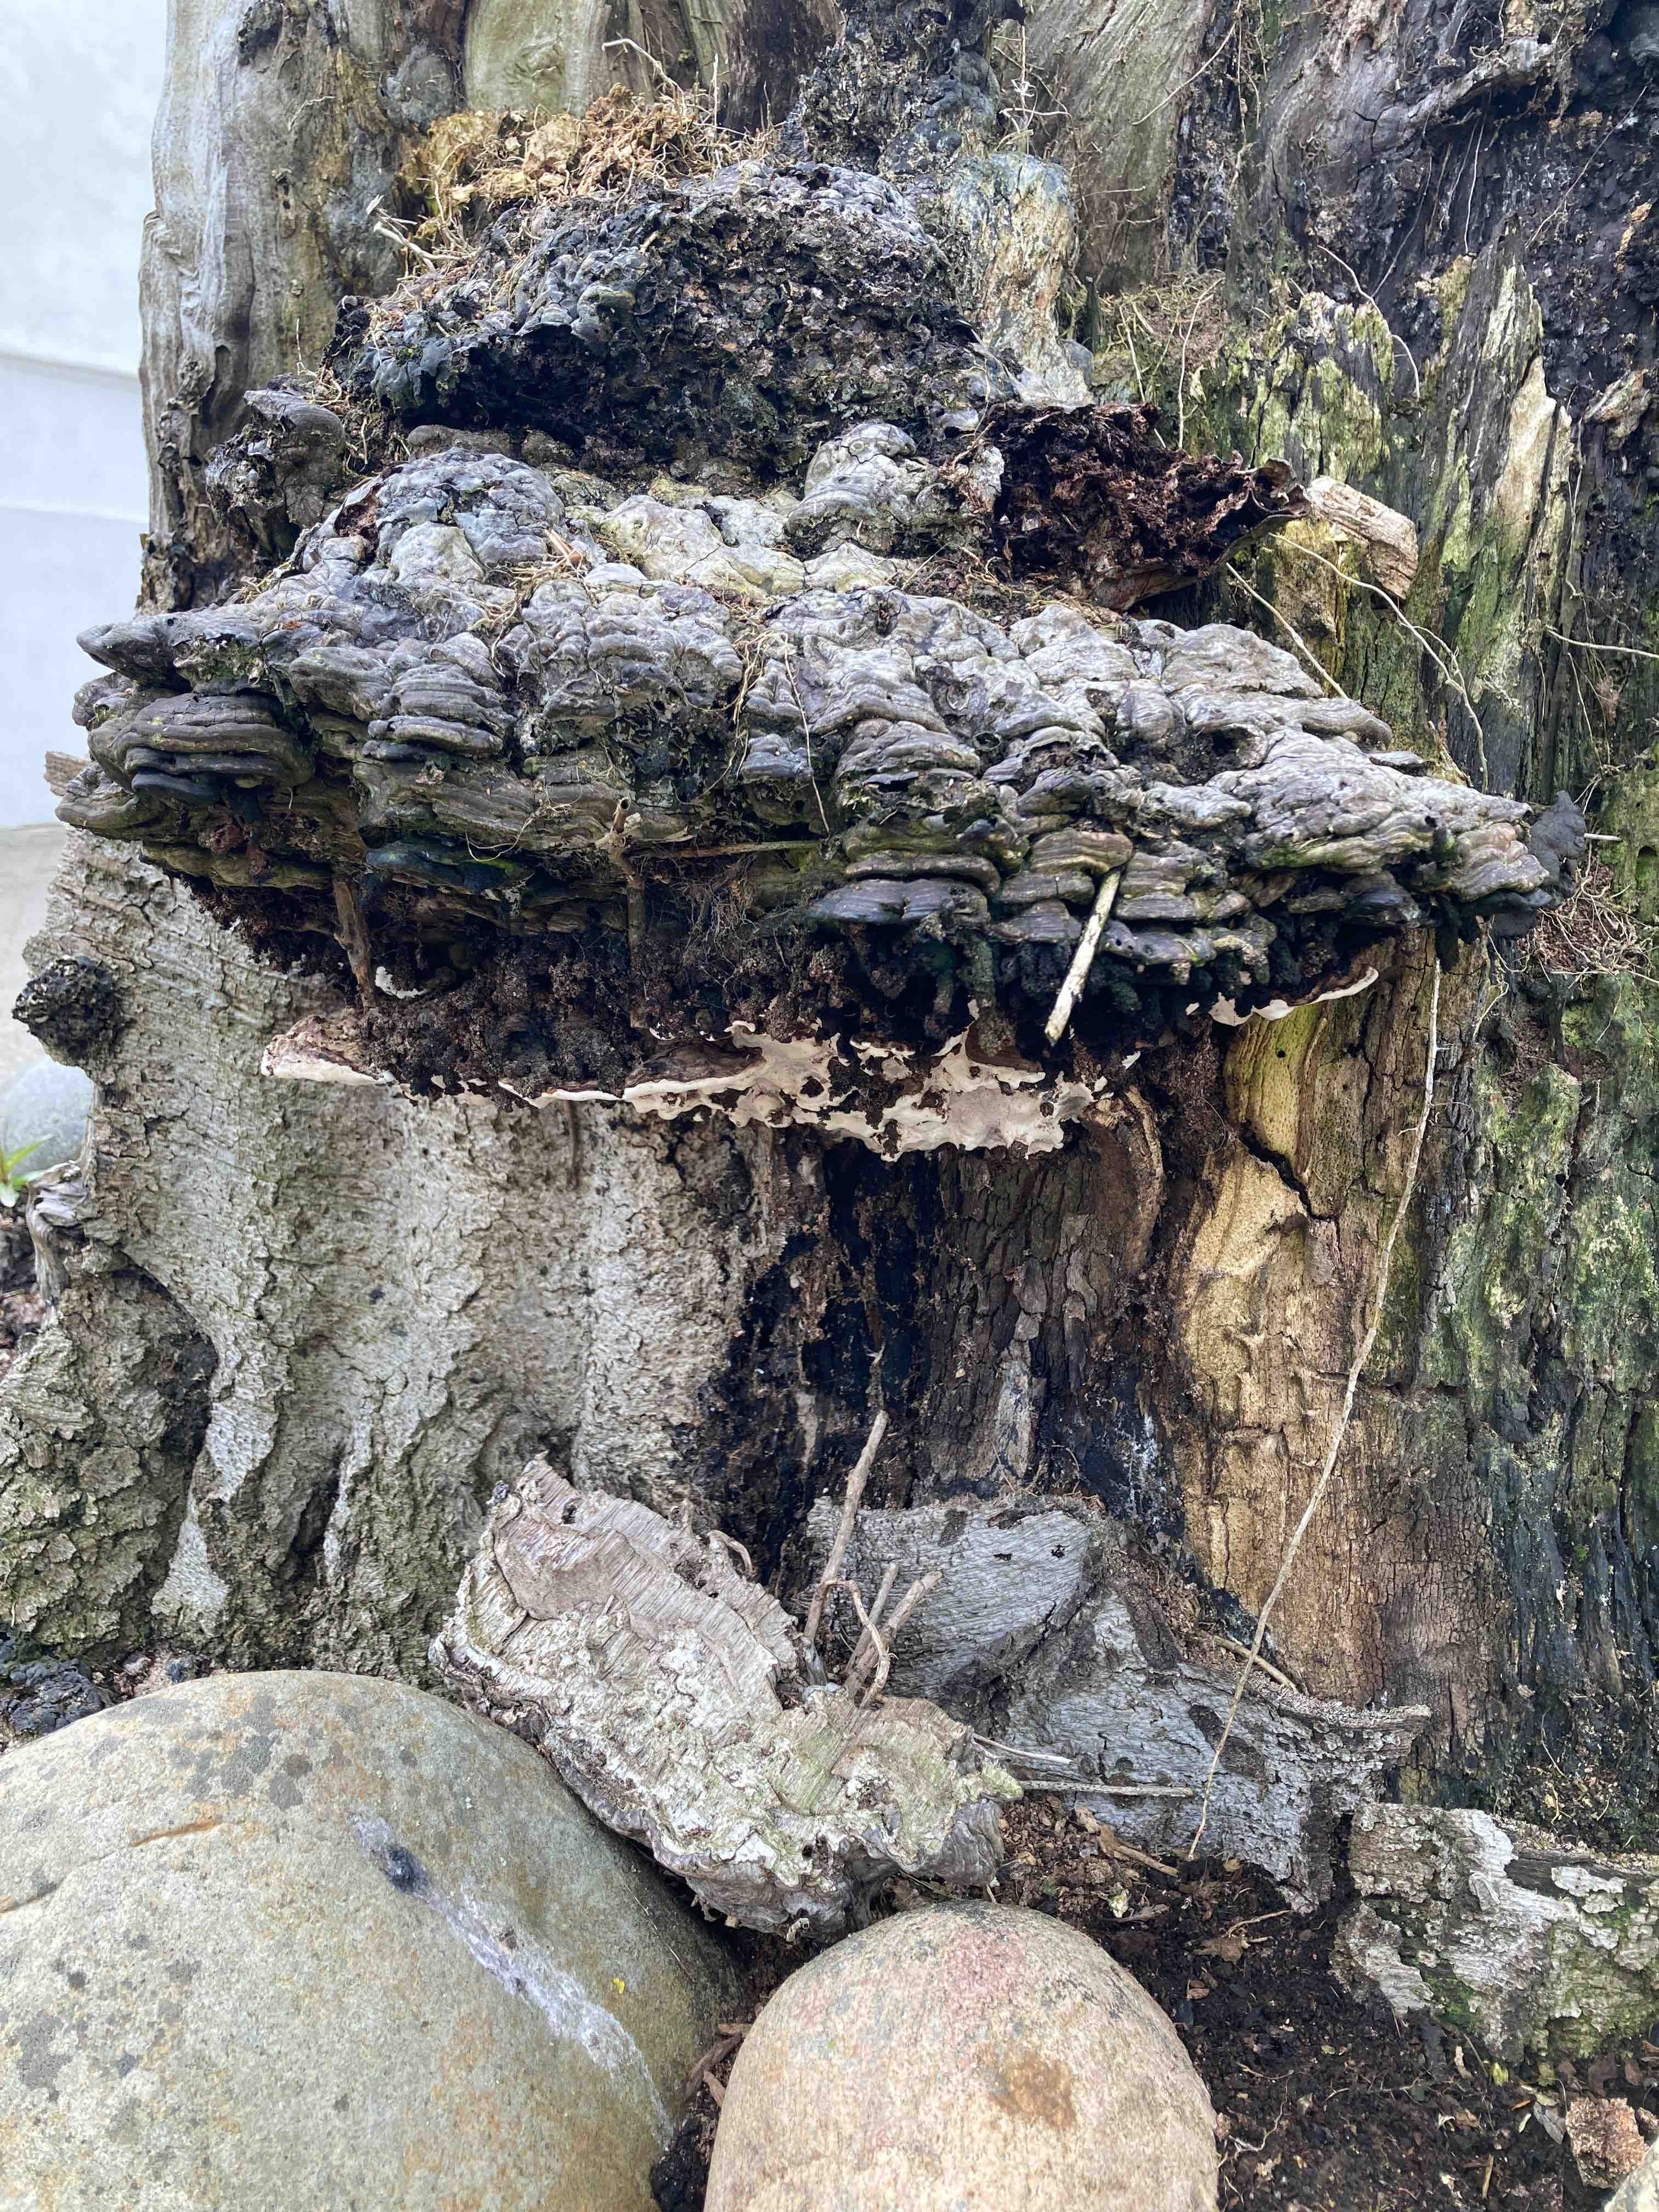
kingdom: Fungi
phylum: Basidiomycota
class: Agaricomycetes
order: Polyporales
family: Polyporaceae
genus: Ganoderma
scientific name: Ganoderma applanatum
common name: flad lakporesvamp
